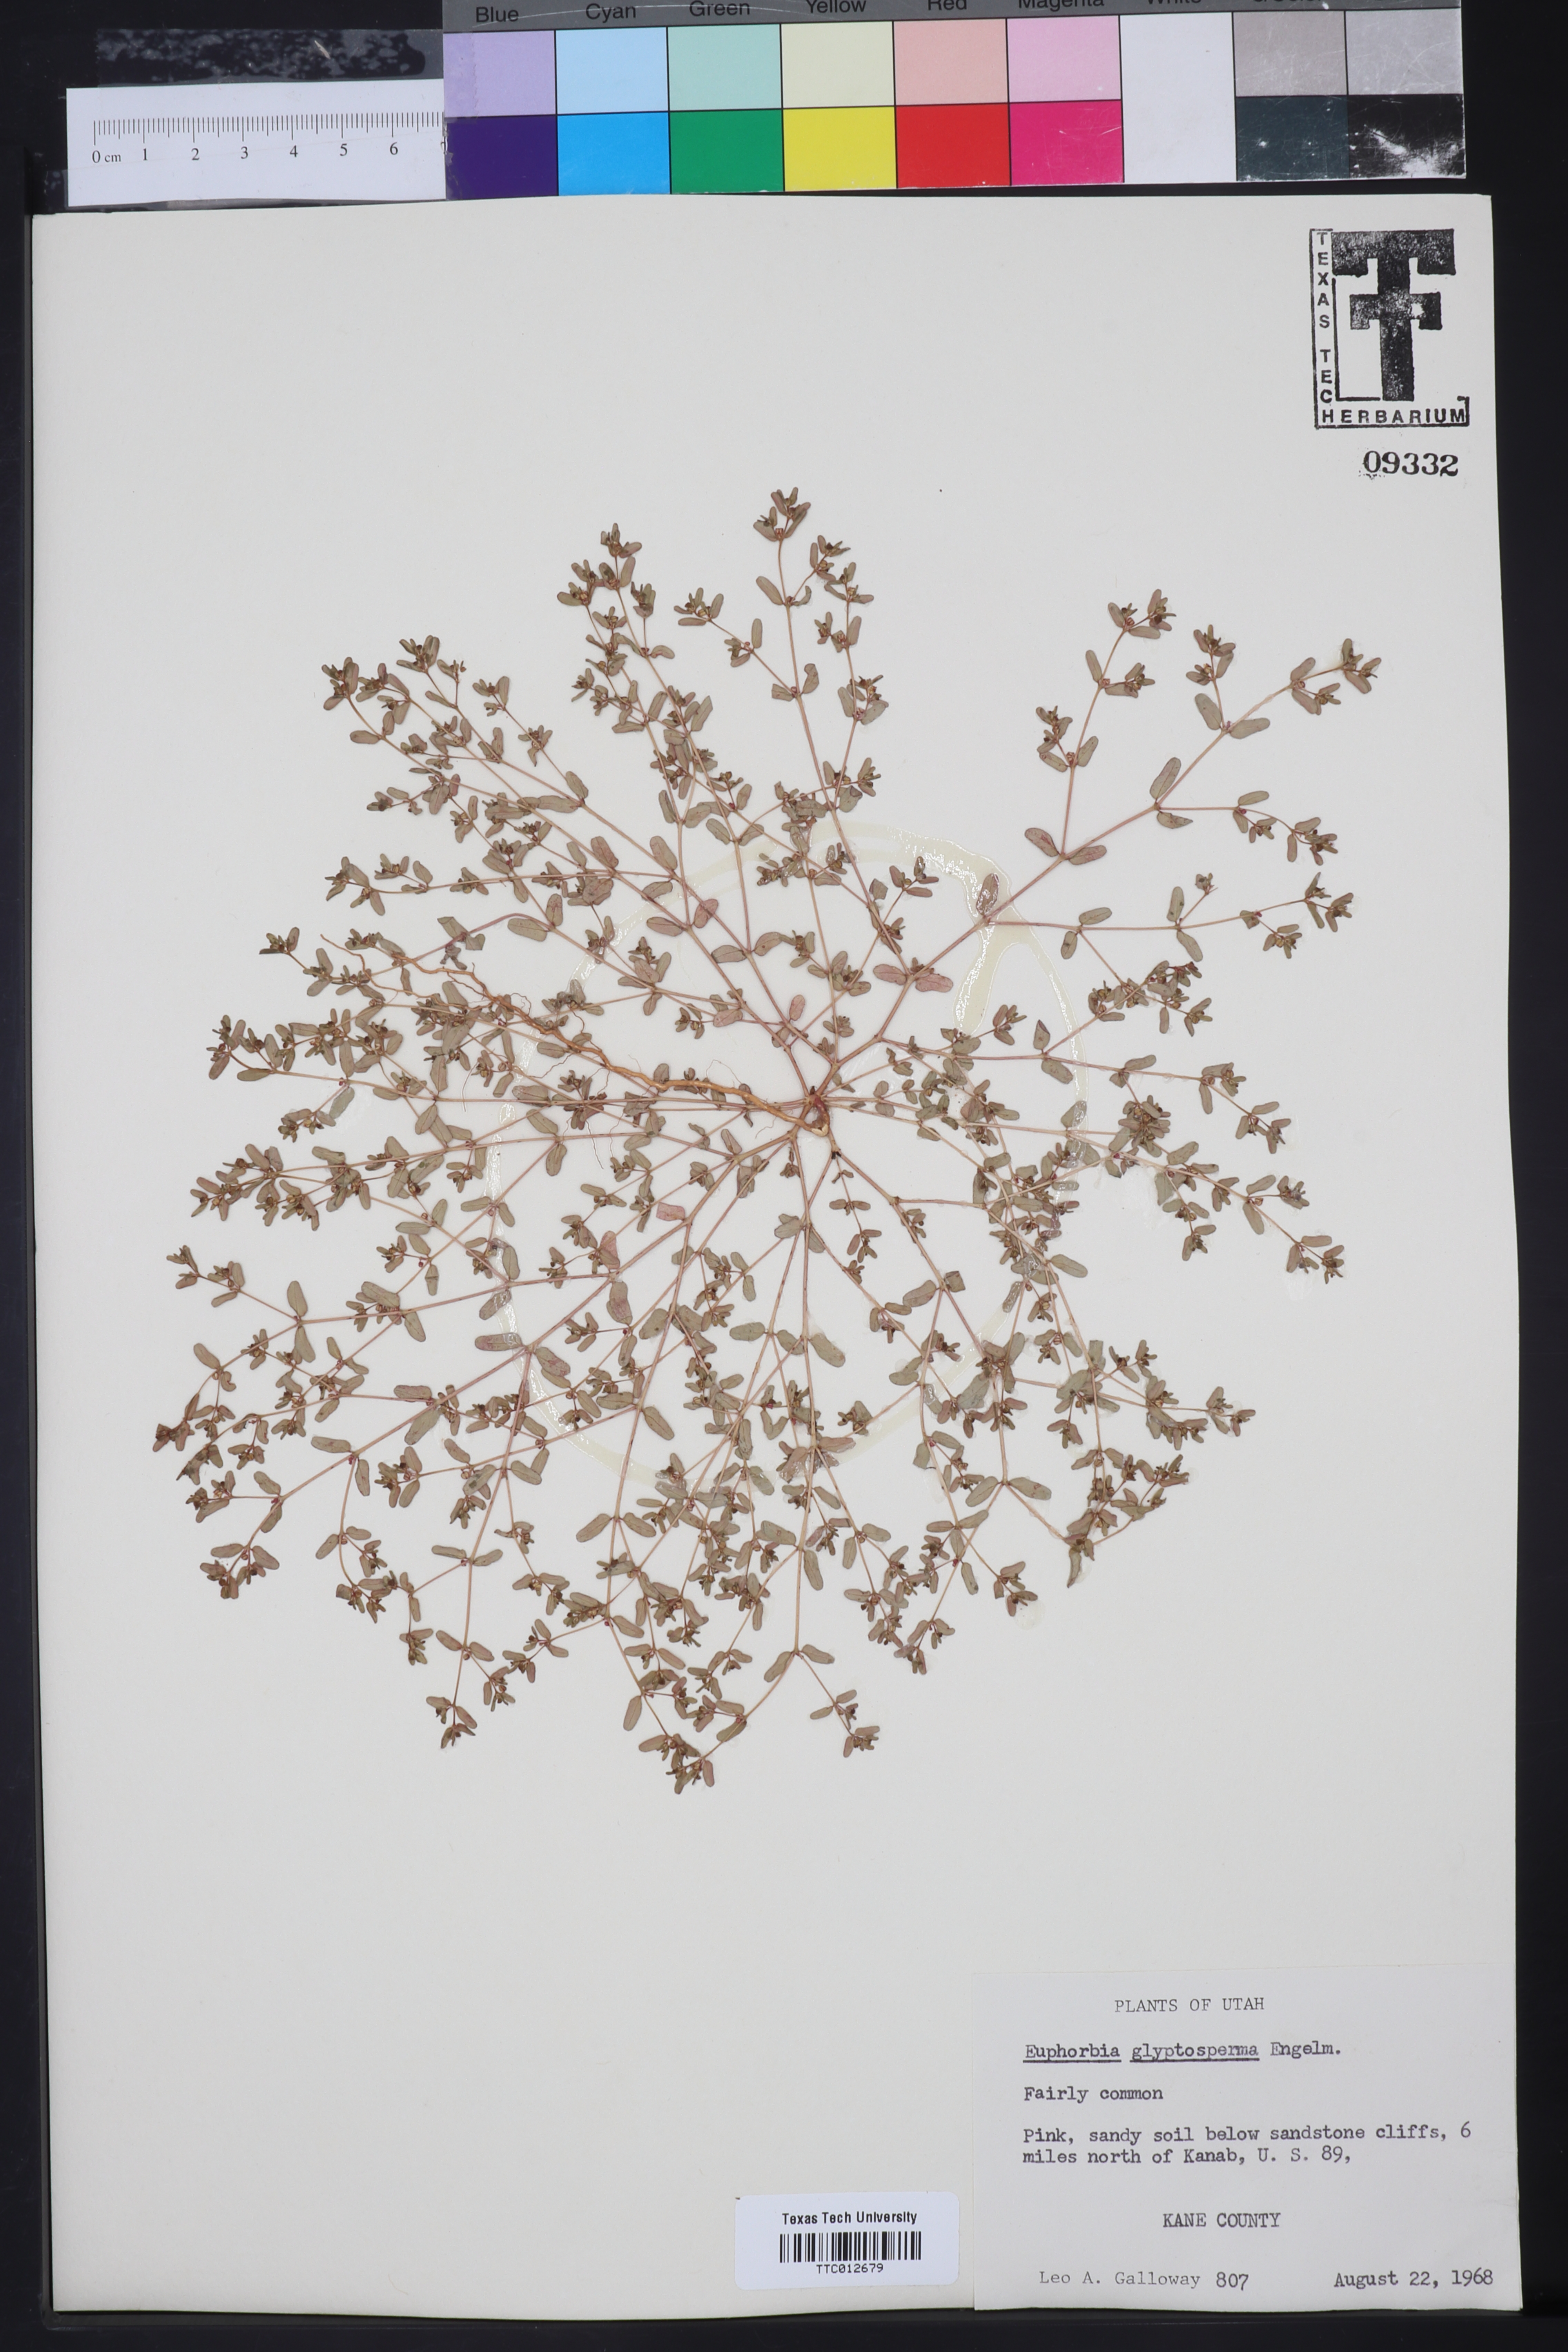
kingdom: Plantae
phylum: Tracheophyta
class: Magnoliopsida
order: Malpighiales
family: Euphorbiaceae
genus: Euphorbia
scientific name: Euphorbia glyptosperma
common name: Corrugate-seeded spurge
